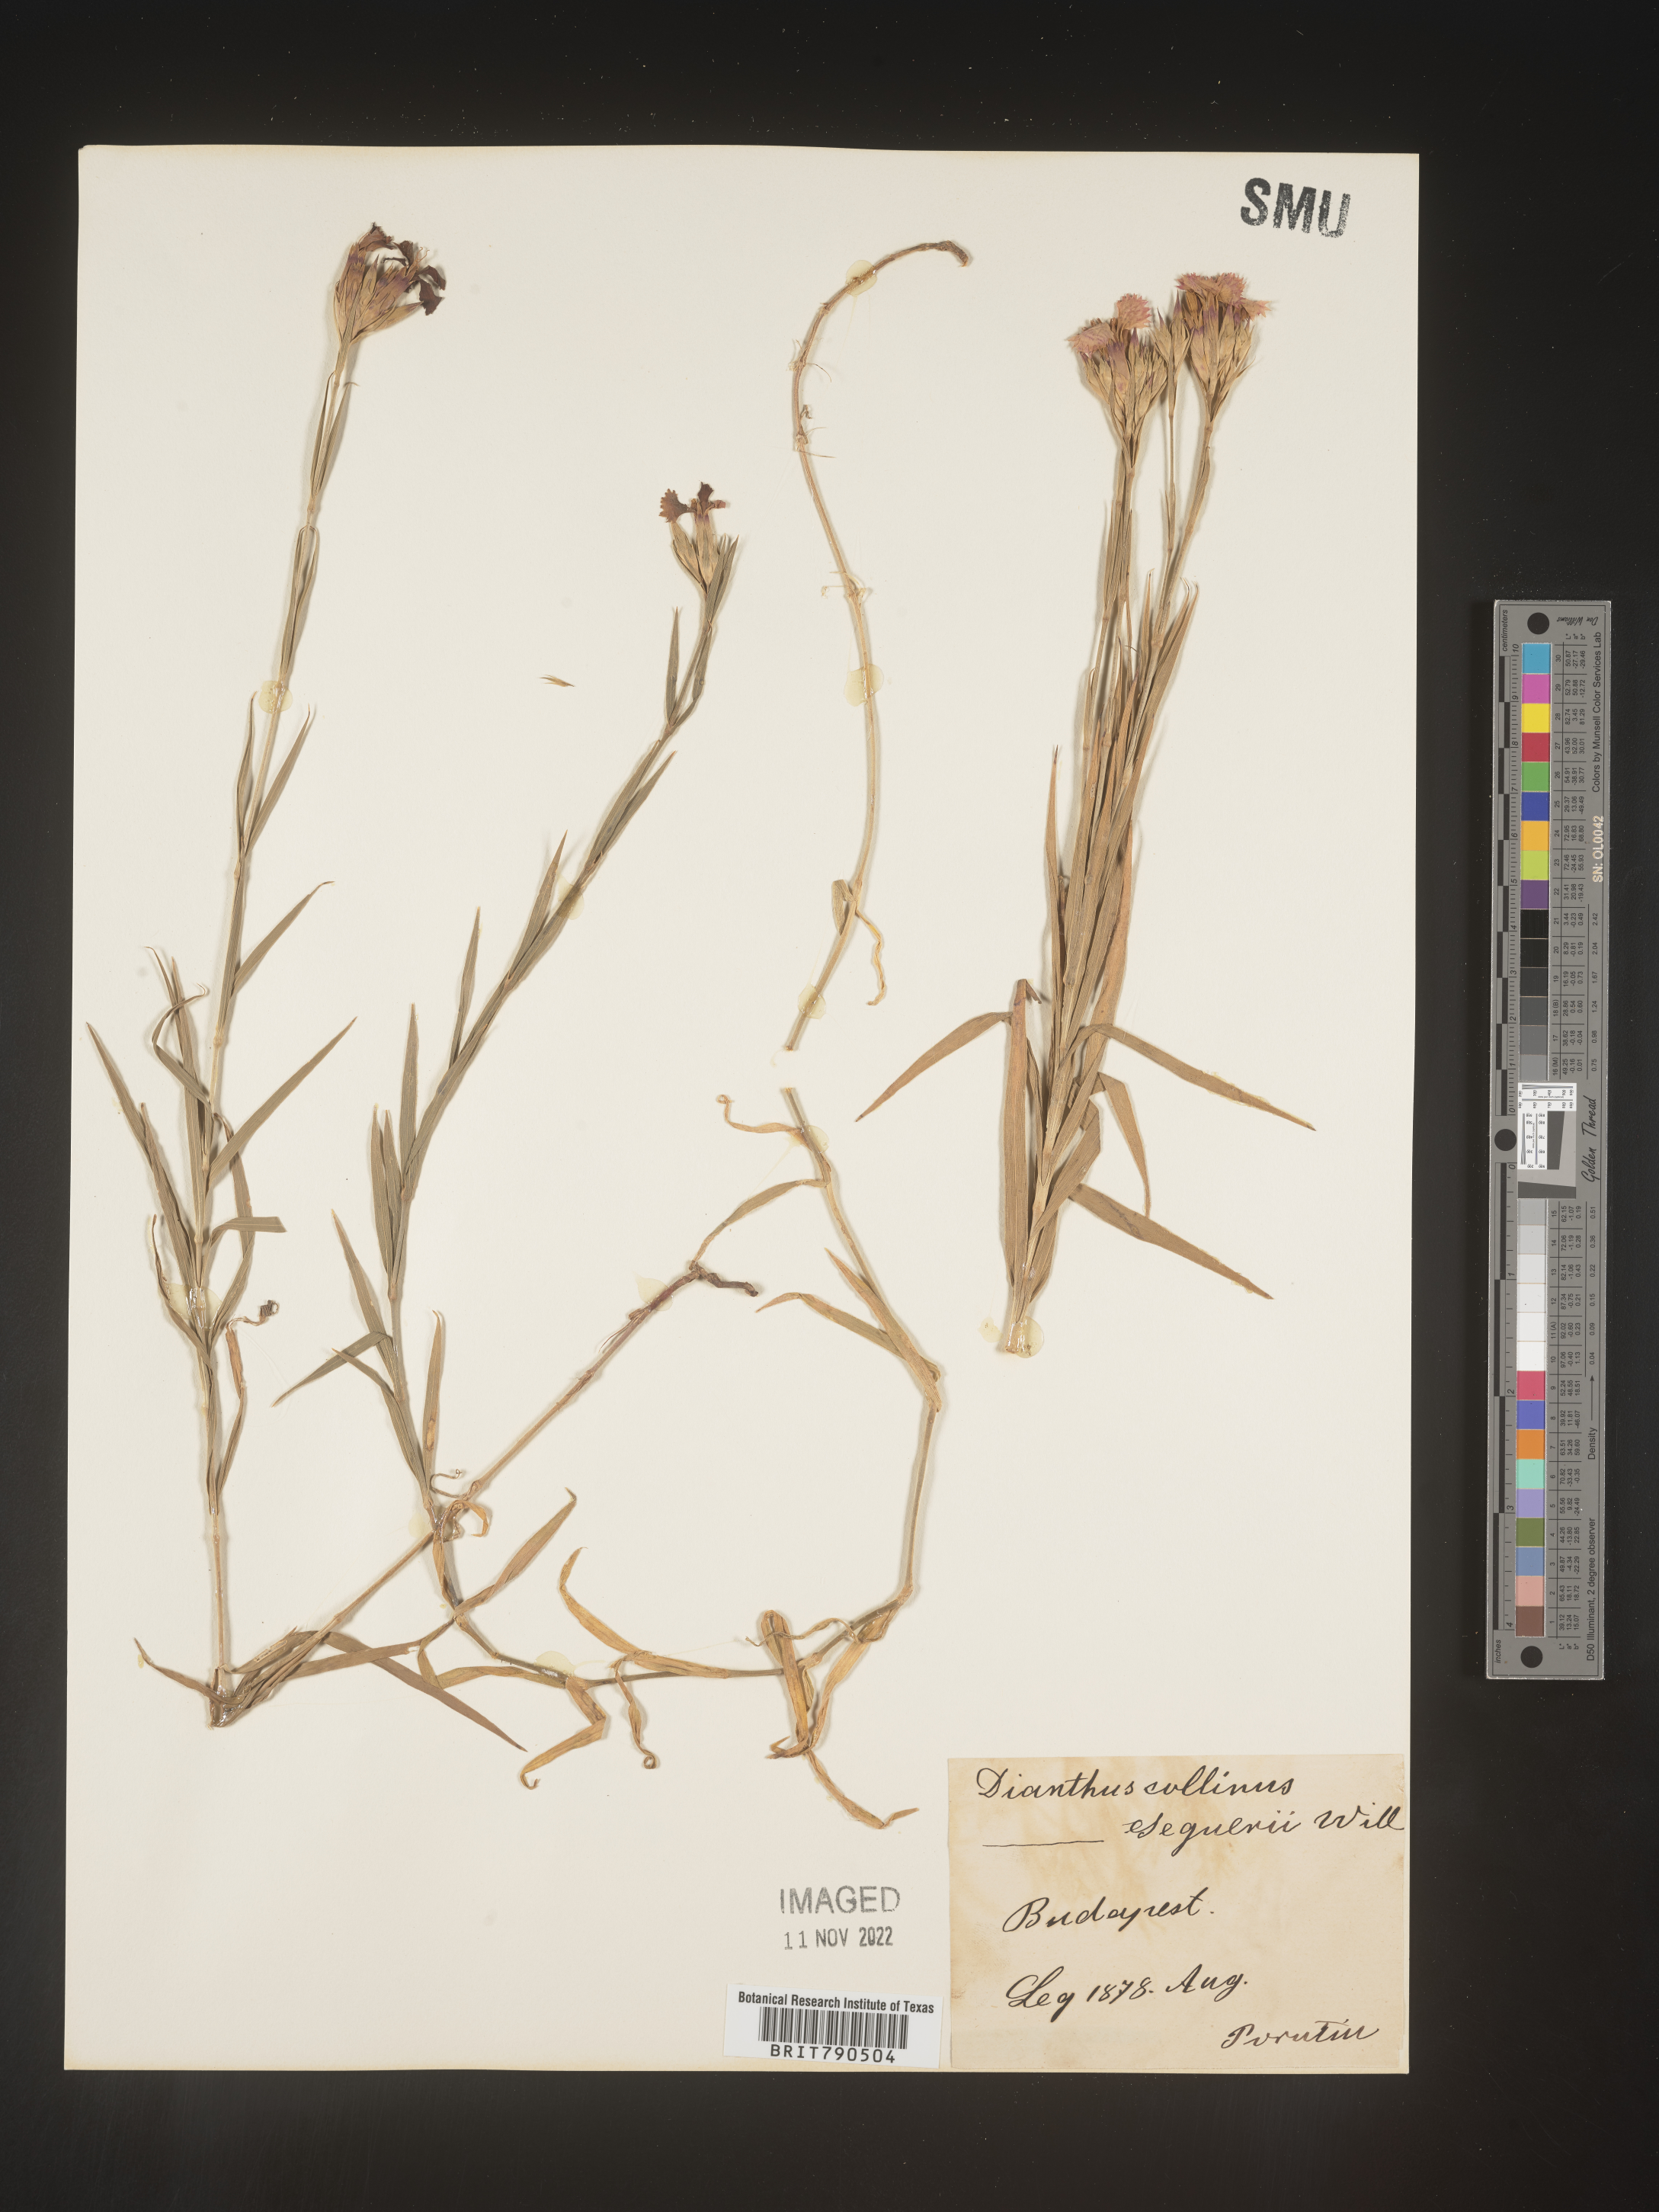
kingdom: Plantae
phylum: Tracheophyta
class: Magnoliopsida
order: Caryophyllales
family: Caryophyllaceae
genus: Dianthus
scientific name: Dianthus
